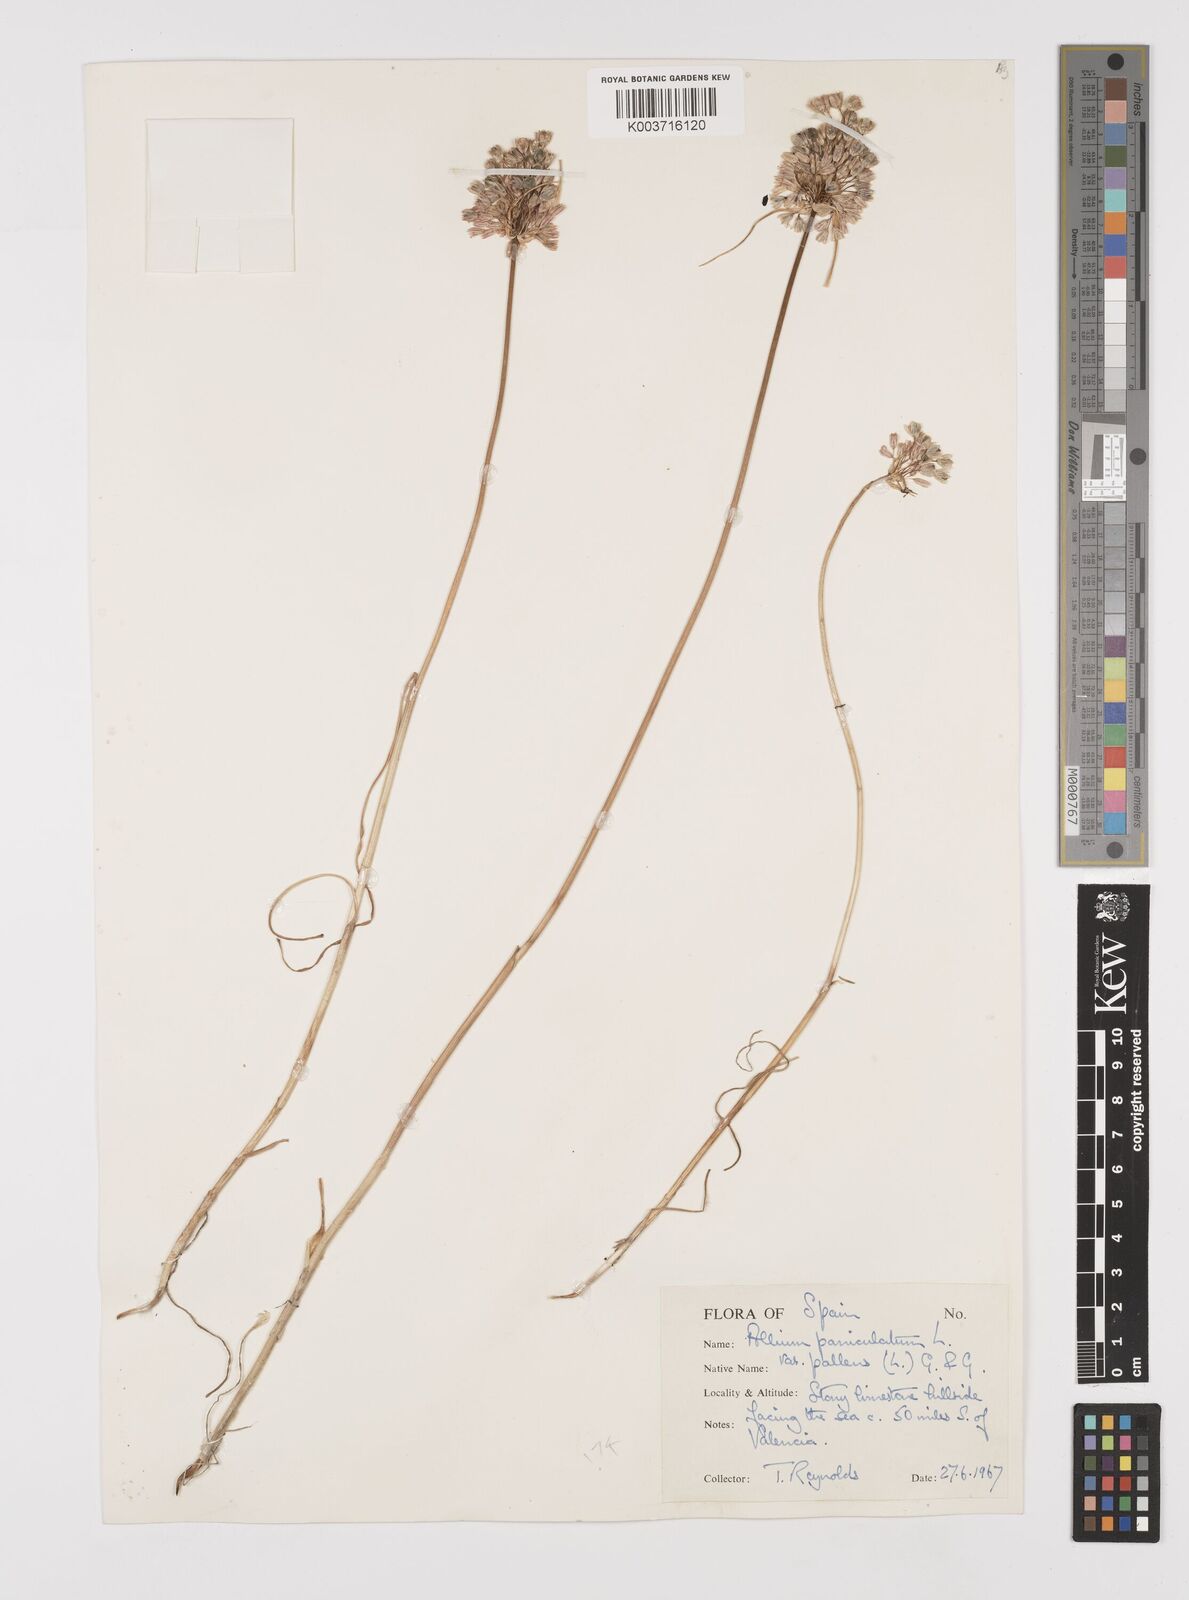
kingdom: Plantae
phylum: Tracheophyta
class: Liliopsida
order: Asparagales
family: Amaryllidaceae
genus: Allium
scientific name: Allium pallens
